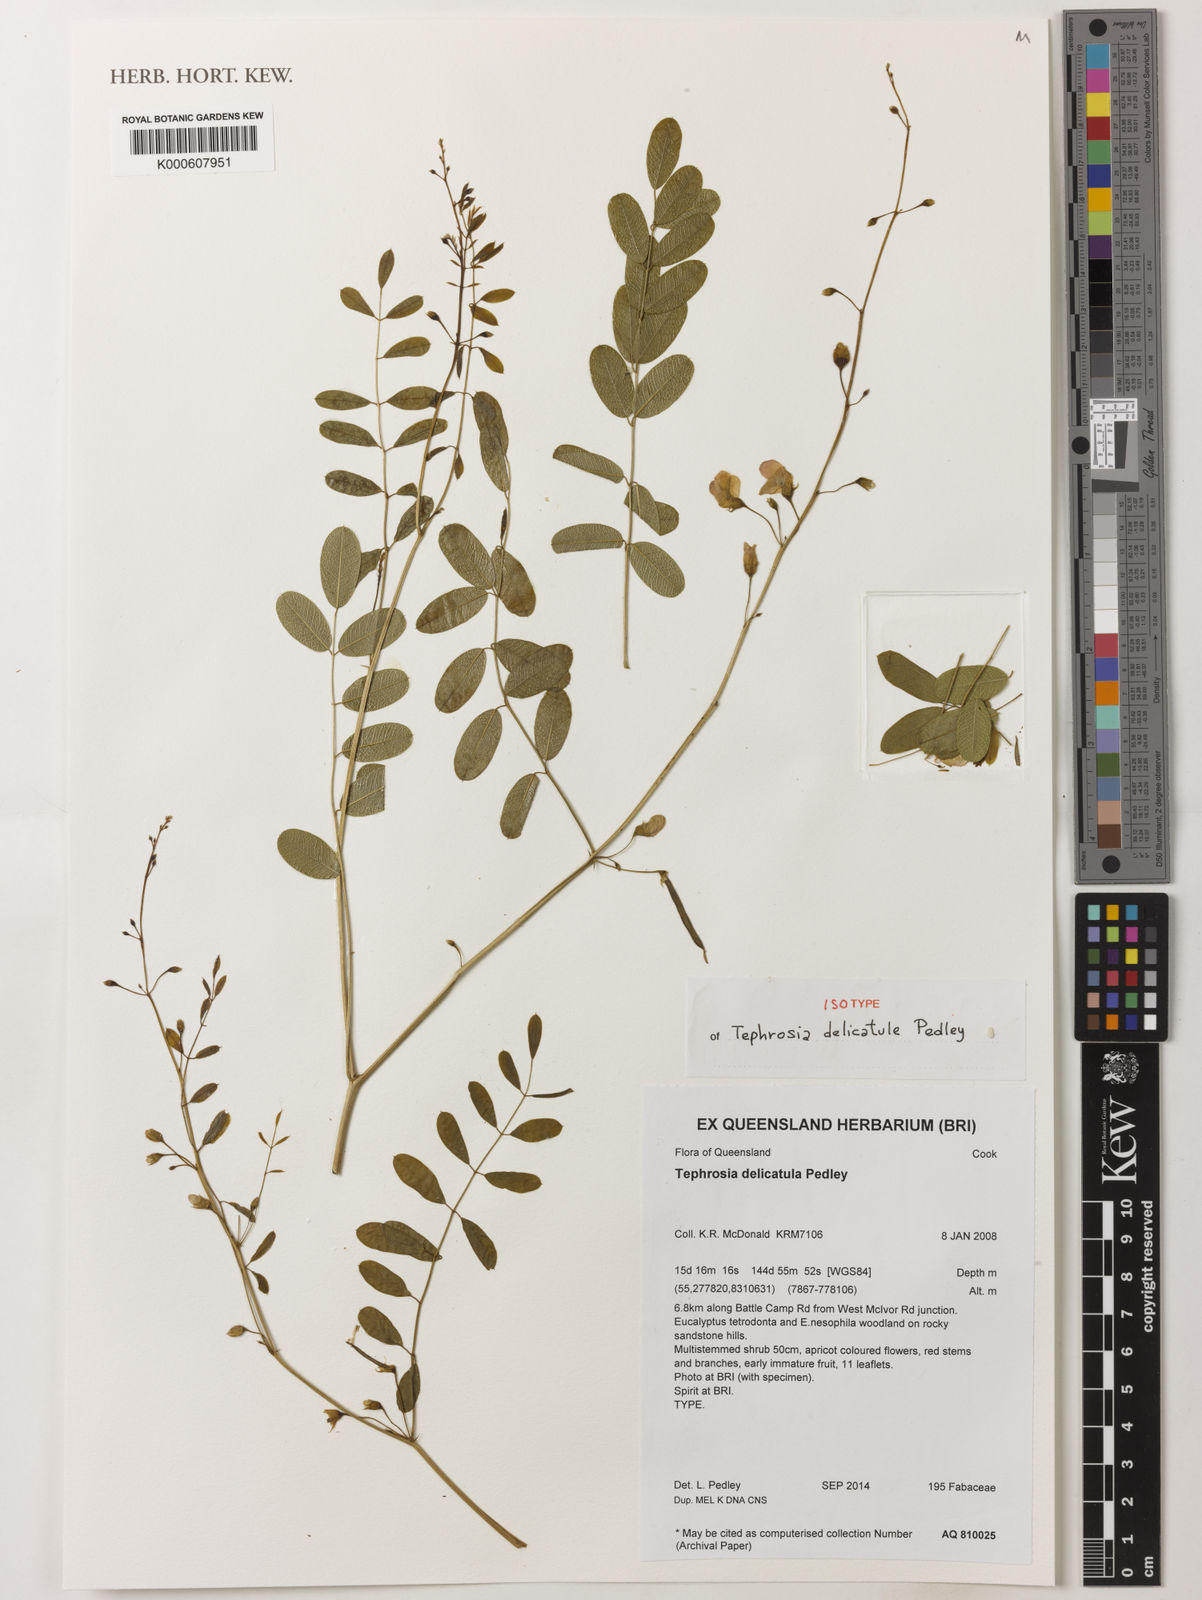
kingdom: Plantae
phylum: Tracheophyta
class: Magnoliopsida
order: Fabales
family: Fabaceae
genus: Tephrosia
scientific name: Tephrosia delicatula
